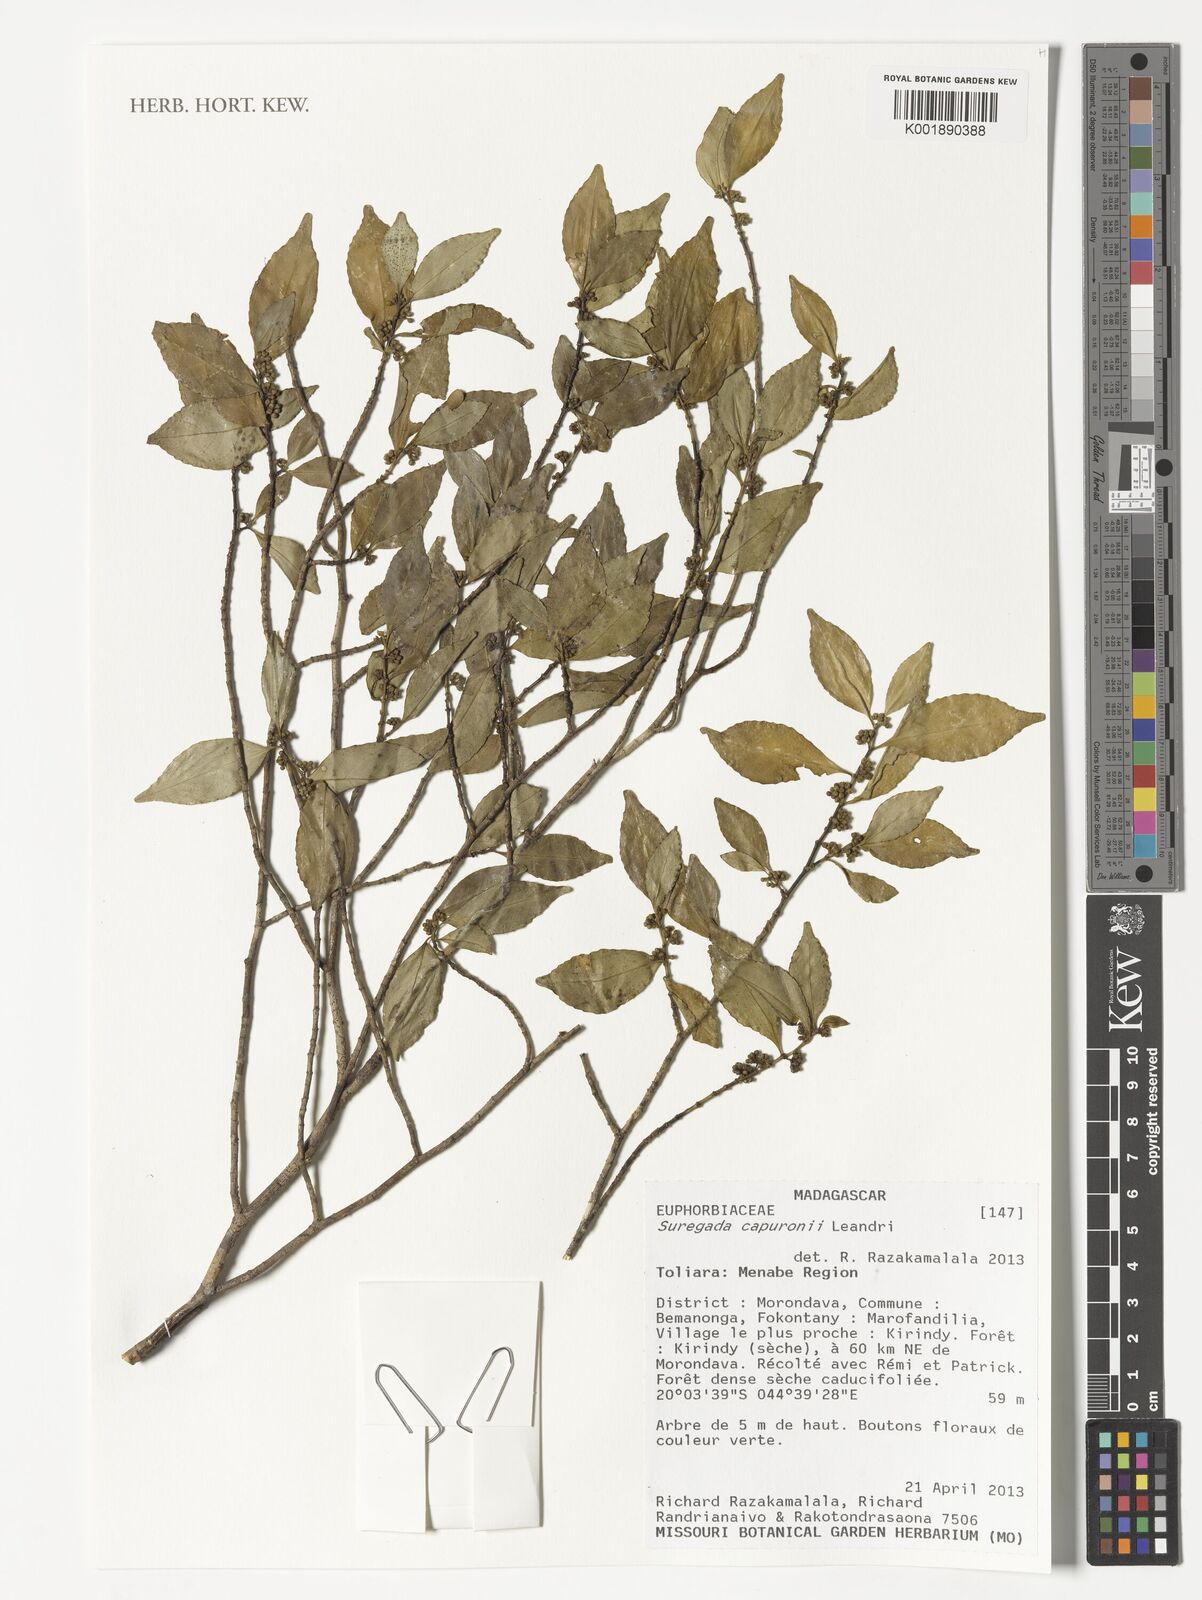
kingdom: Plantae
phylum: Tracheophyta
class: Magnoliopsida
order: Malpighiales
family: Euphorbiaceae
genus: Suregada
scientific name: Suregada capuronii
